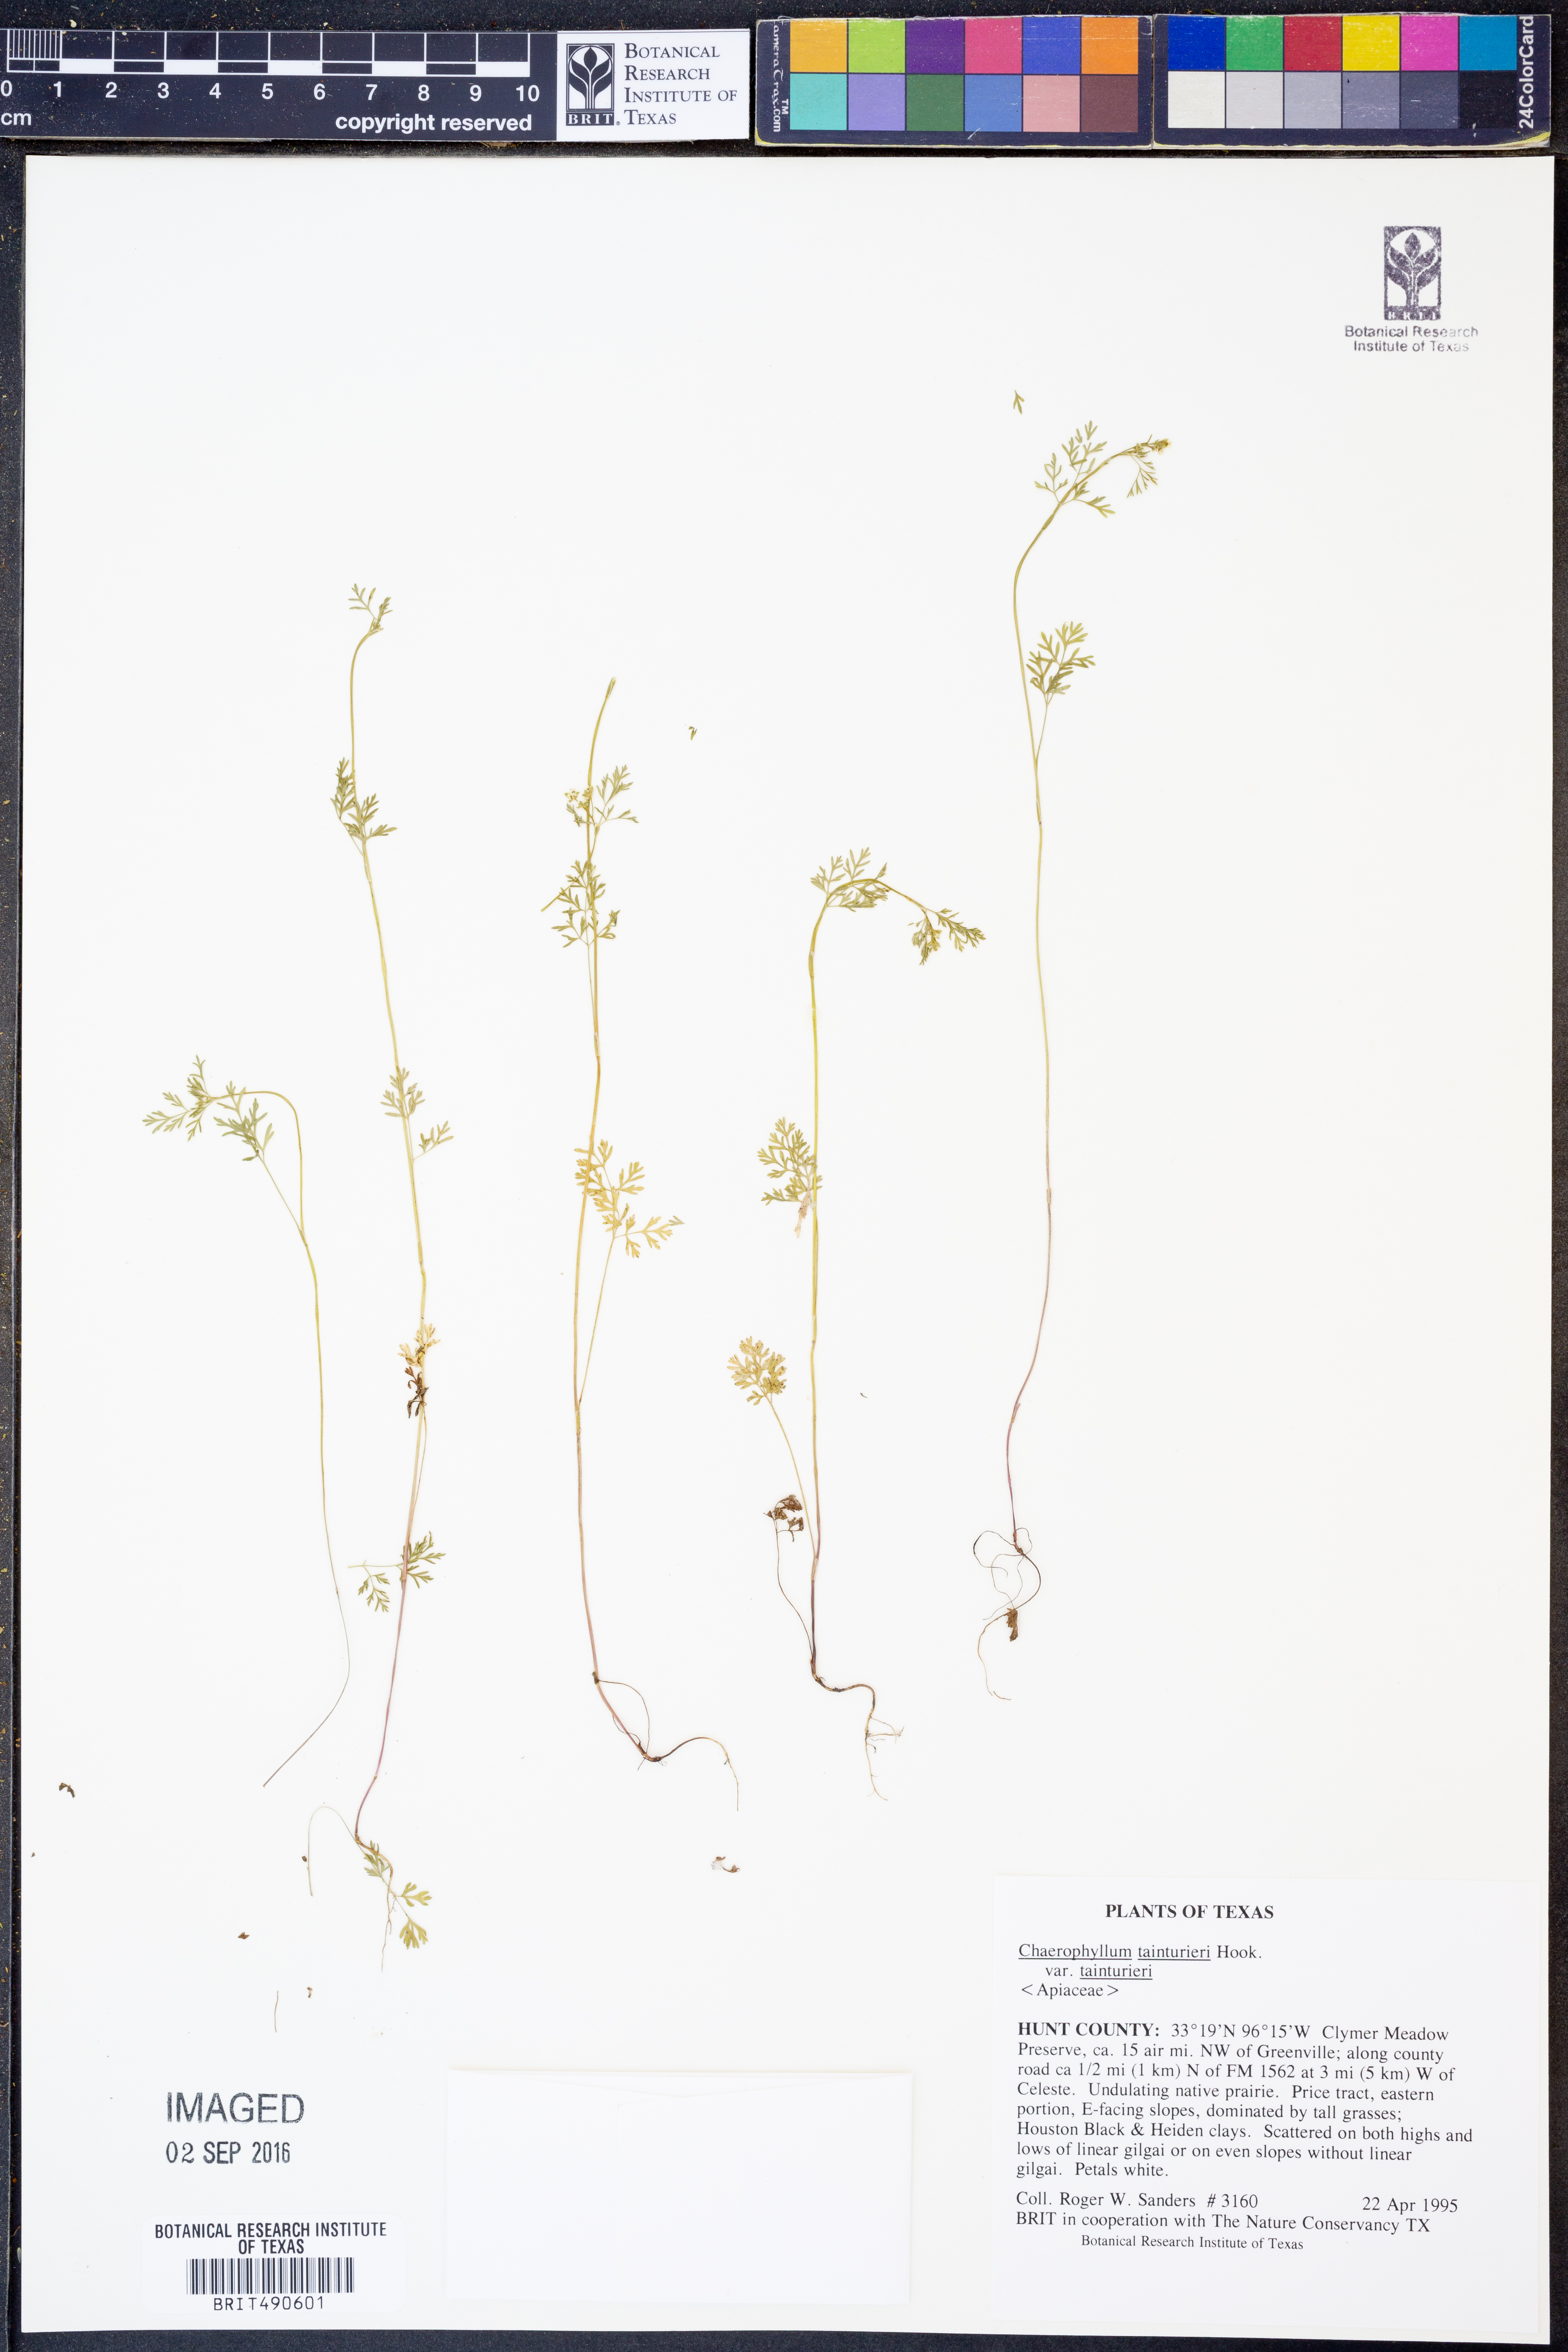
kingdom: Plantae
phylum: Tracheophyta
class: Magnoliopsida
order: Apiales
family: Apiaceae
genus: Chaerophyllum
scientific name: Chaerophyllum tainturieri
